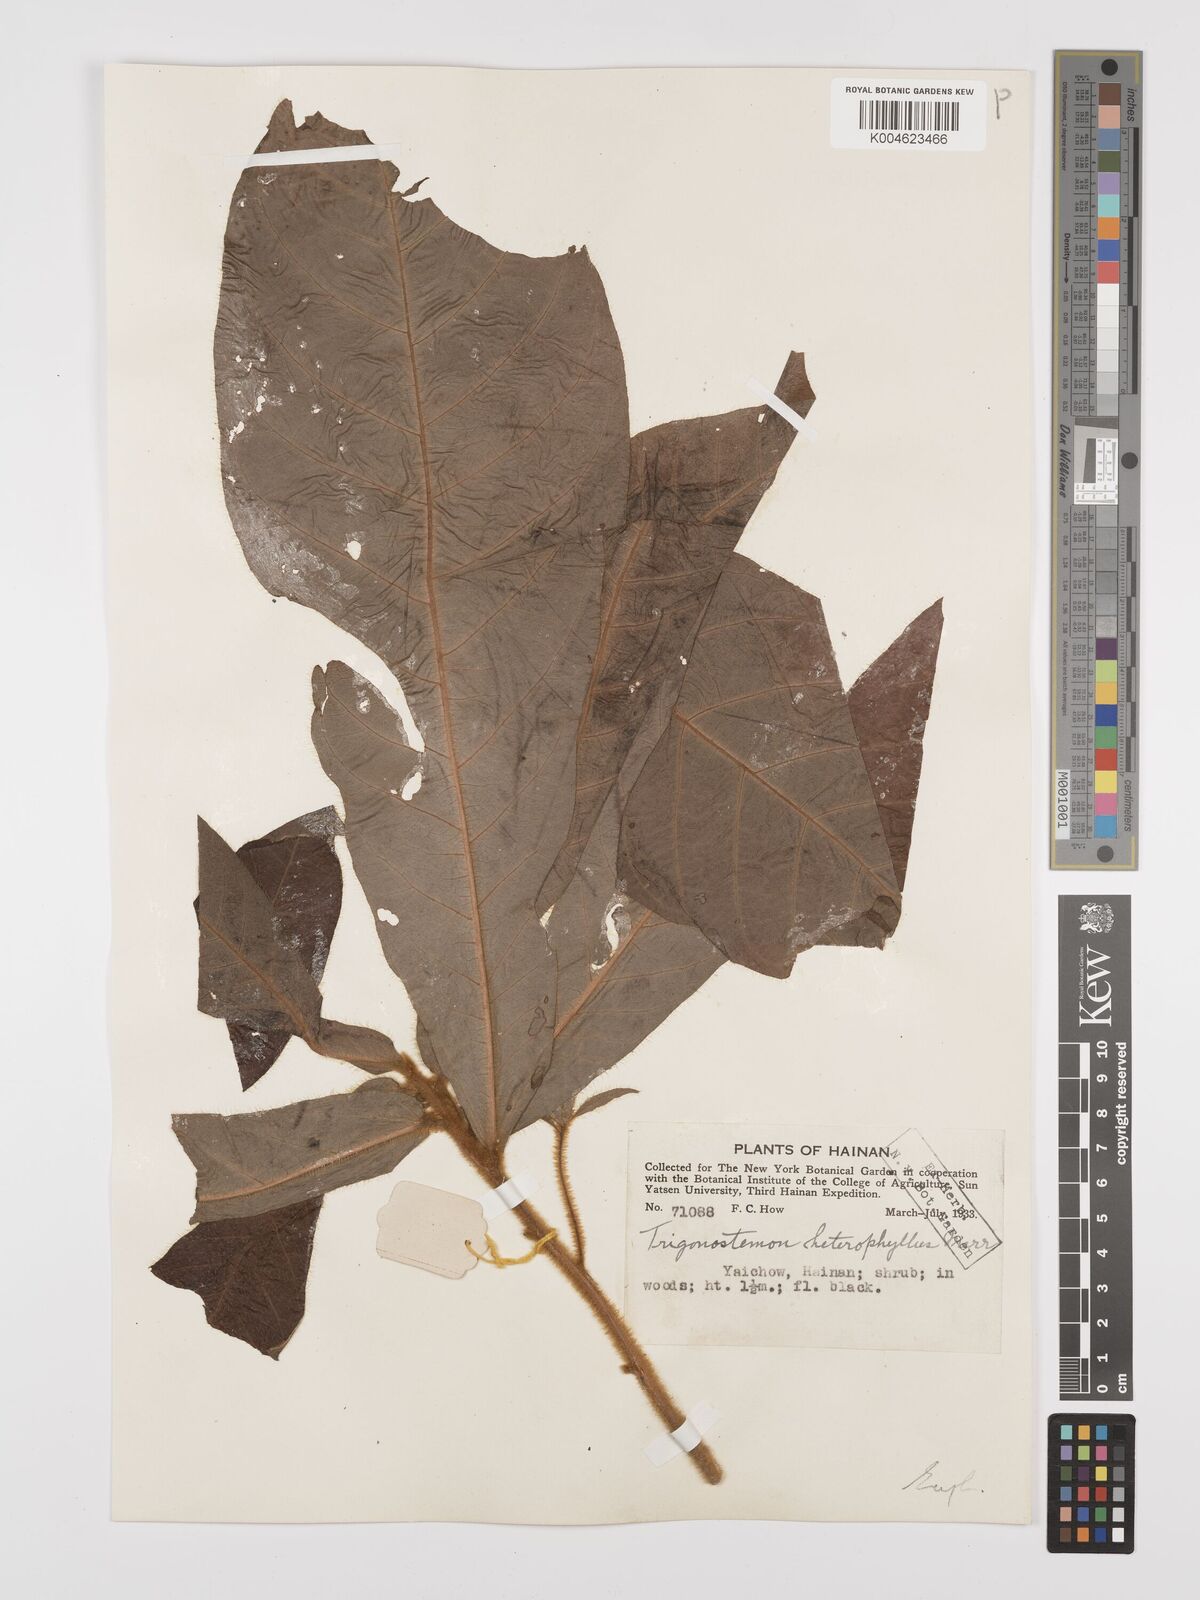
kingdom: Plantae
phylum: Tracheophyta
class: Magnoliopsida
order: Malpighiales
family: Euphorbiaceae
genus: Trigonostemon
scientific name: Trigonostemon flavidus
